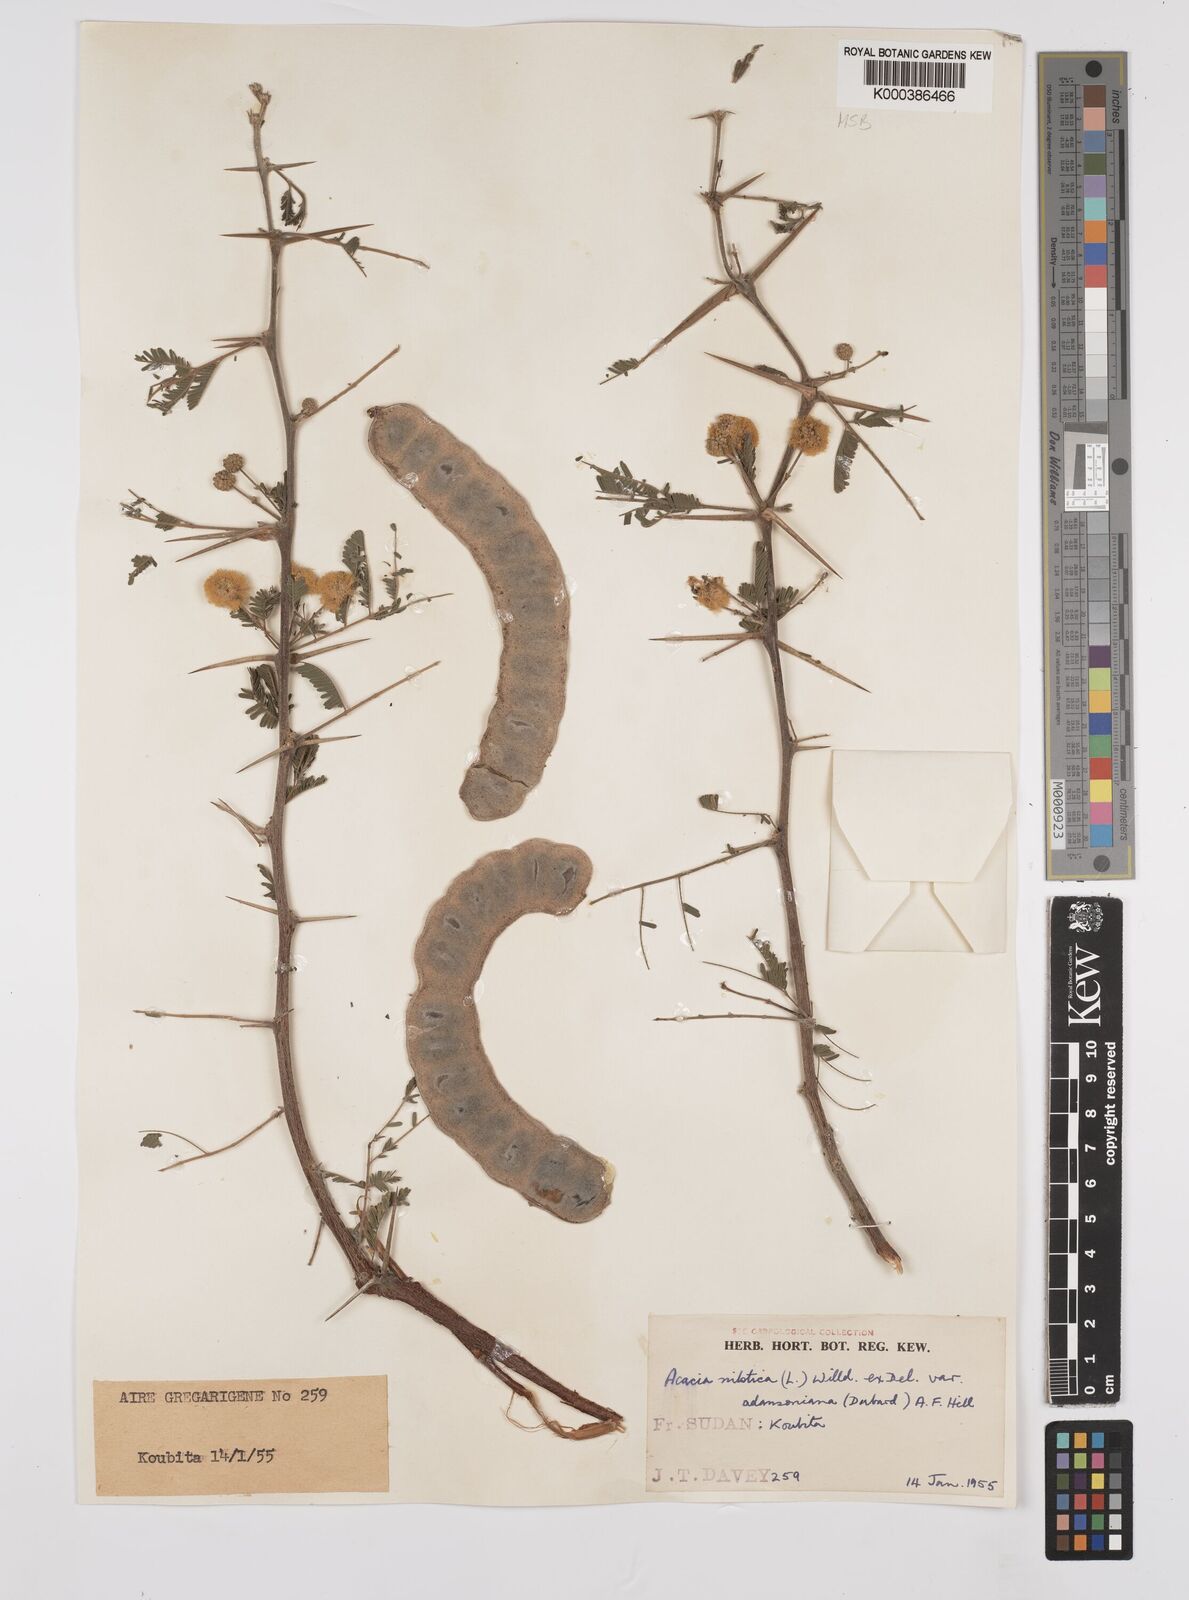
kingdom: Plantae
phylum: Tracheophyta
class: Magnoliopsida
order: Fabales
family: Fabaceae
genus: Vachellia
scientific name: Vachellia nilotica
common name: Arabic gumtree
